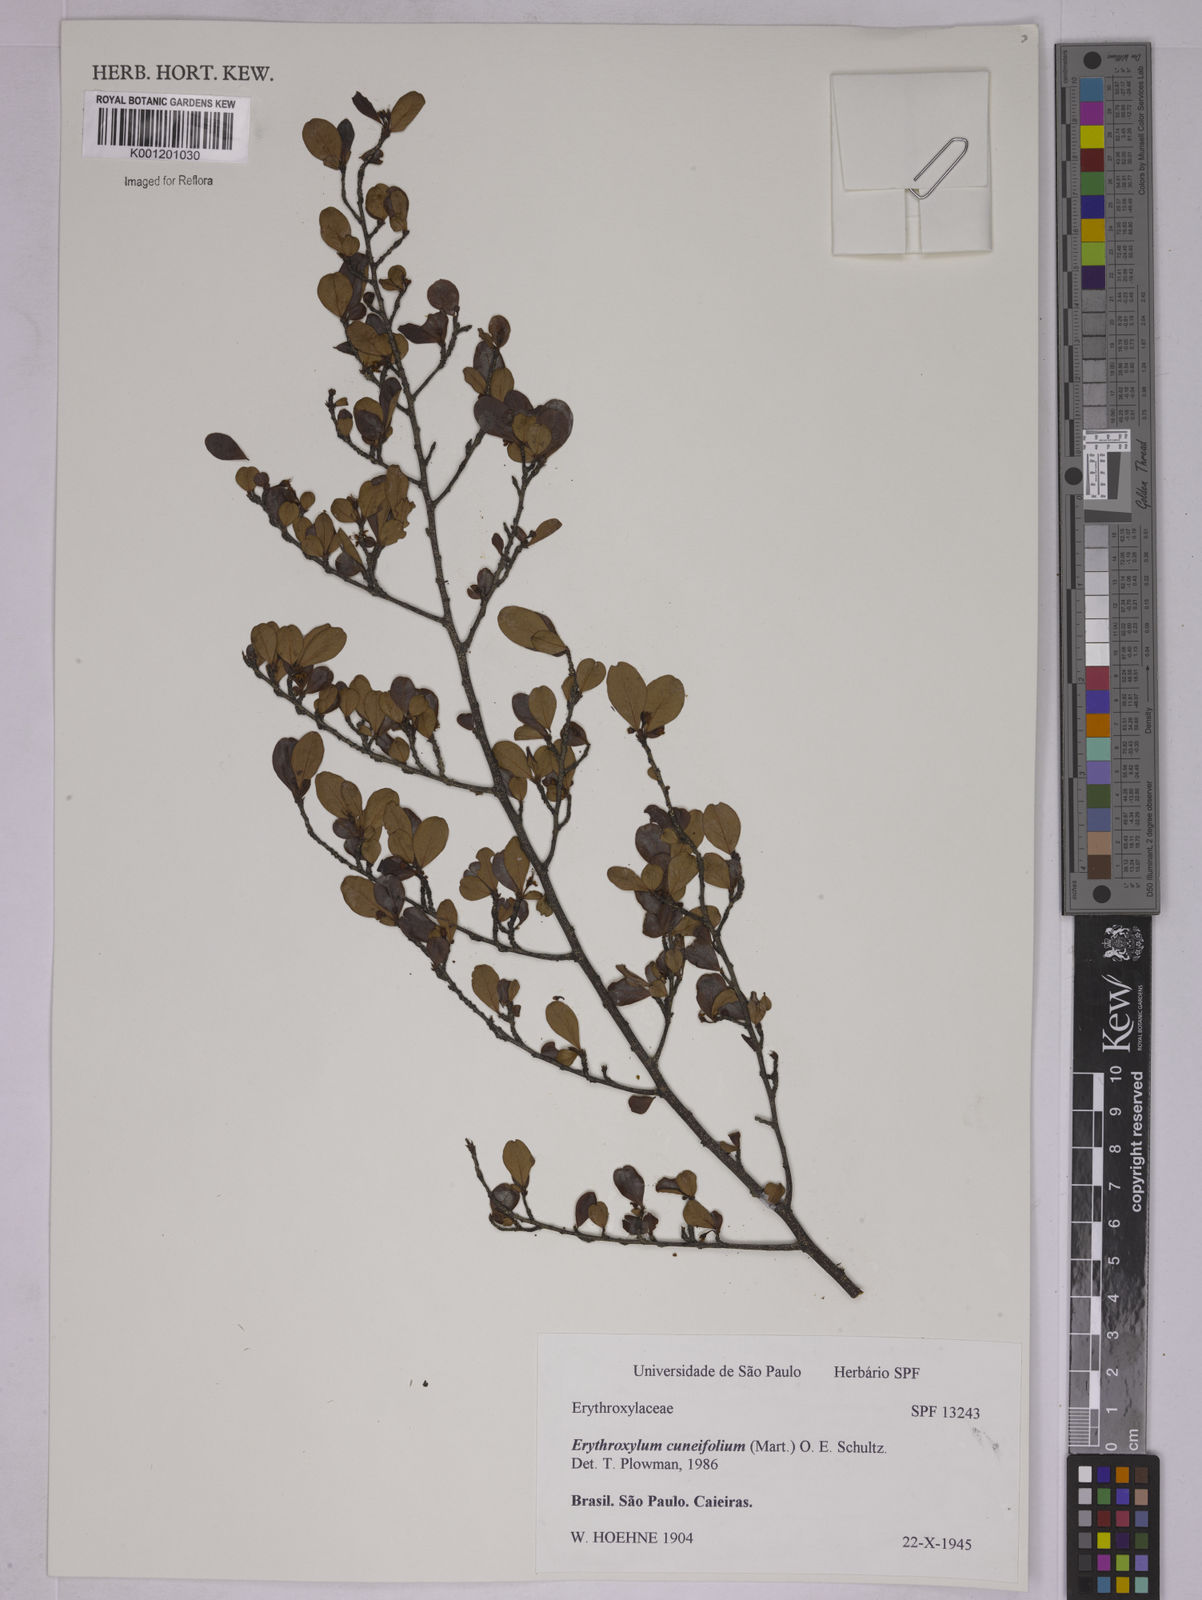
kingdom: Plantae
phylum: Tracheophyta
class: Magnoliopsida
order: Malpighiales
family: Erythroxylaceae
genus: Erythroxylum
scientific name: Erythroxylum cuneifolium
